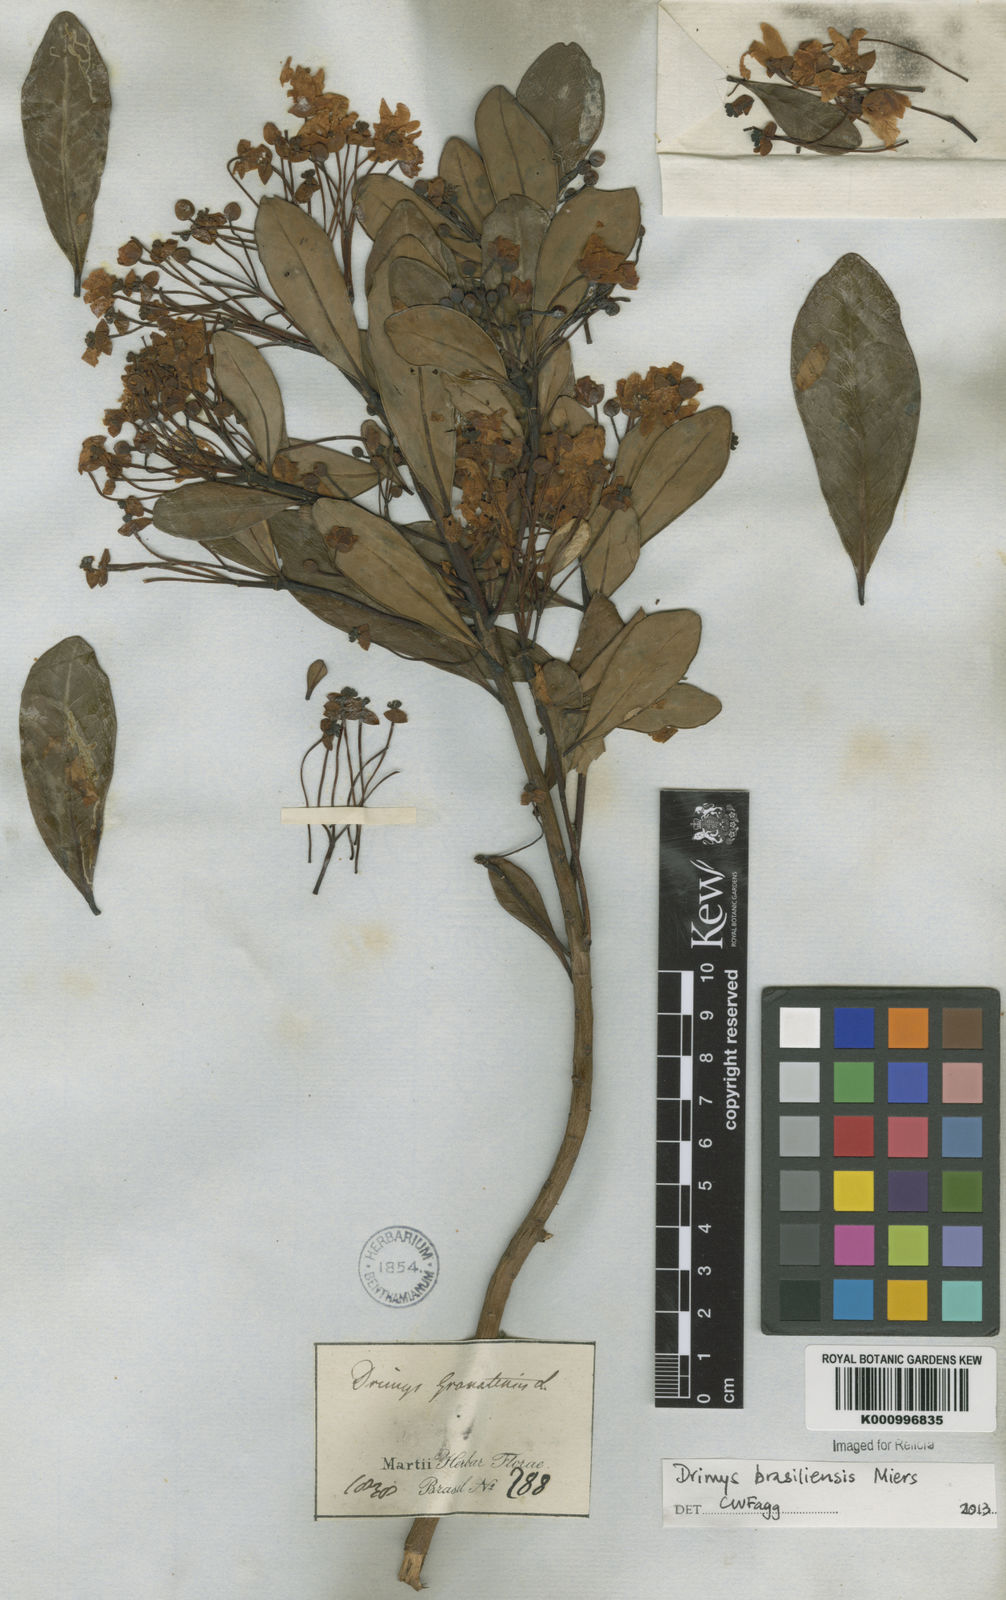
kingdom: Plantae
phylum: Tracheophyta
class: Magnoliopsida
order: Canellales
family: Winteraceae
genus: Drimys
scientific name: Drimys brasiliensis
